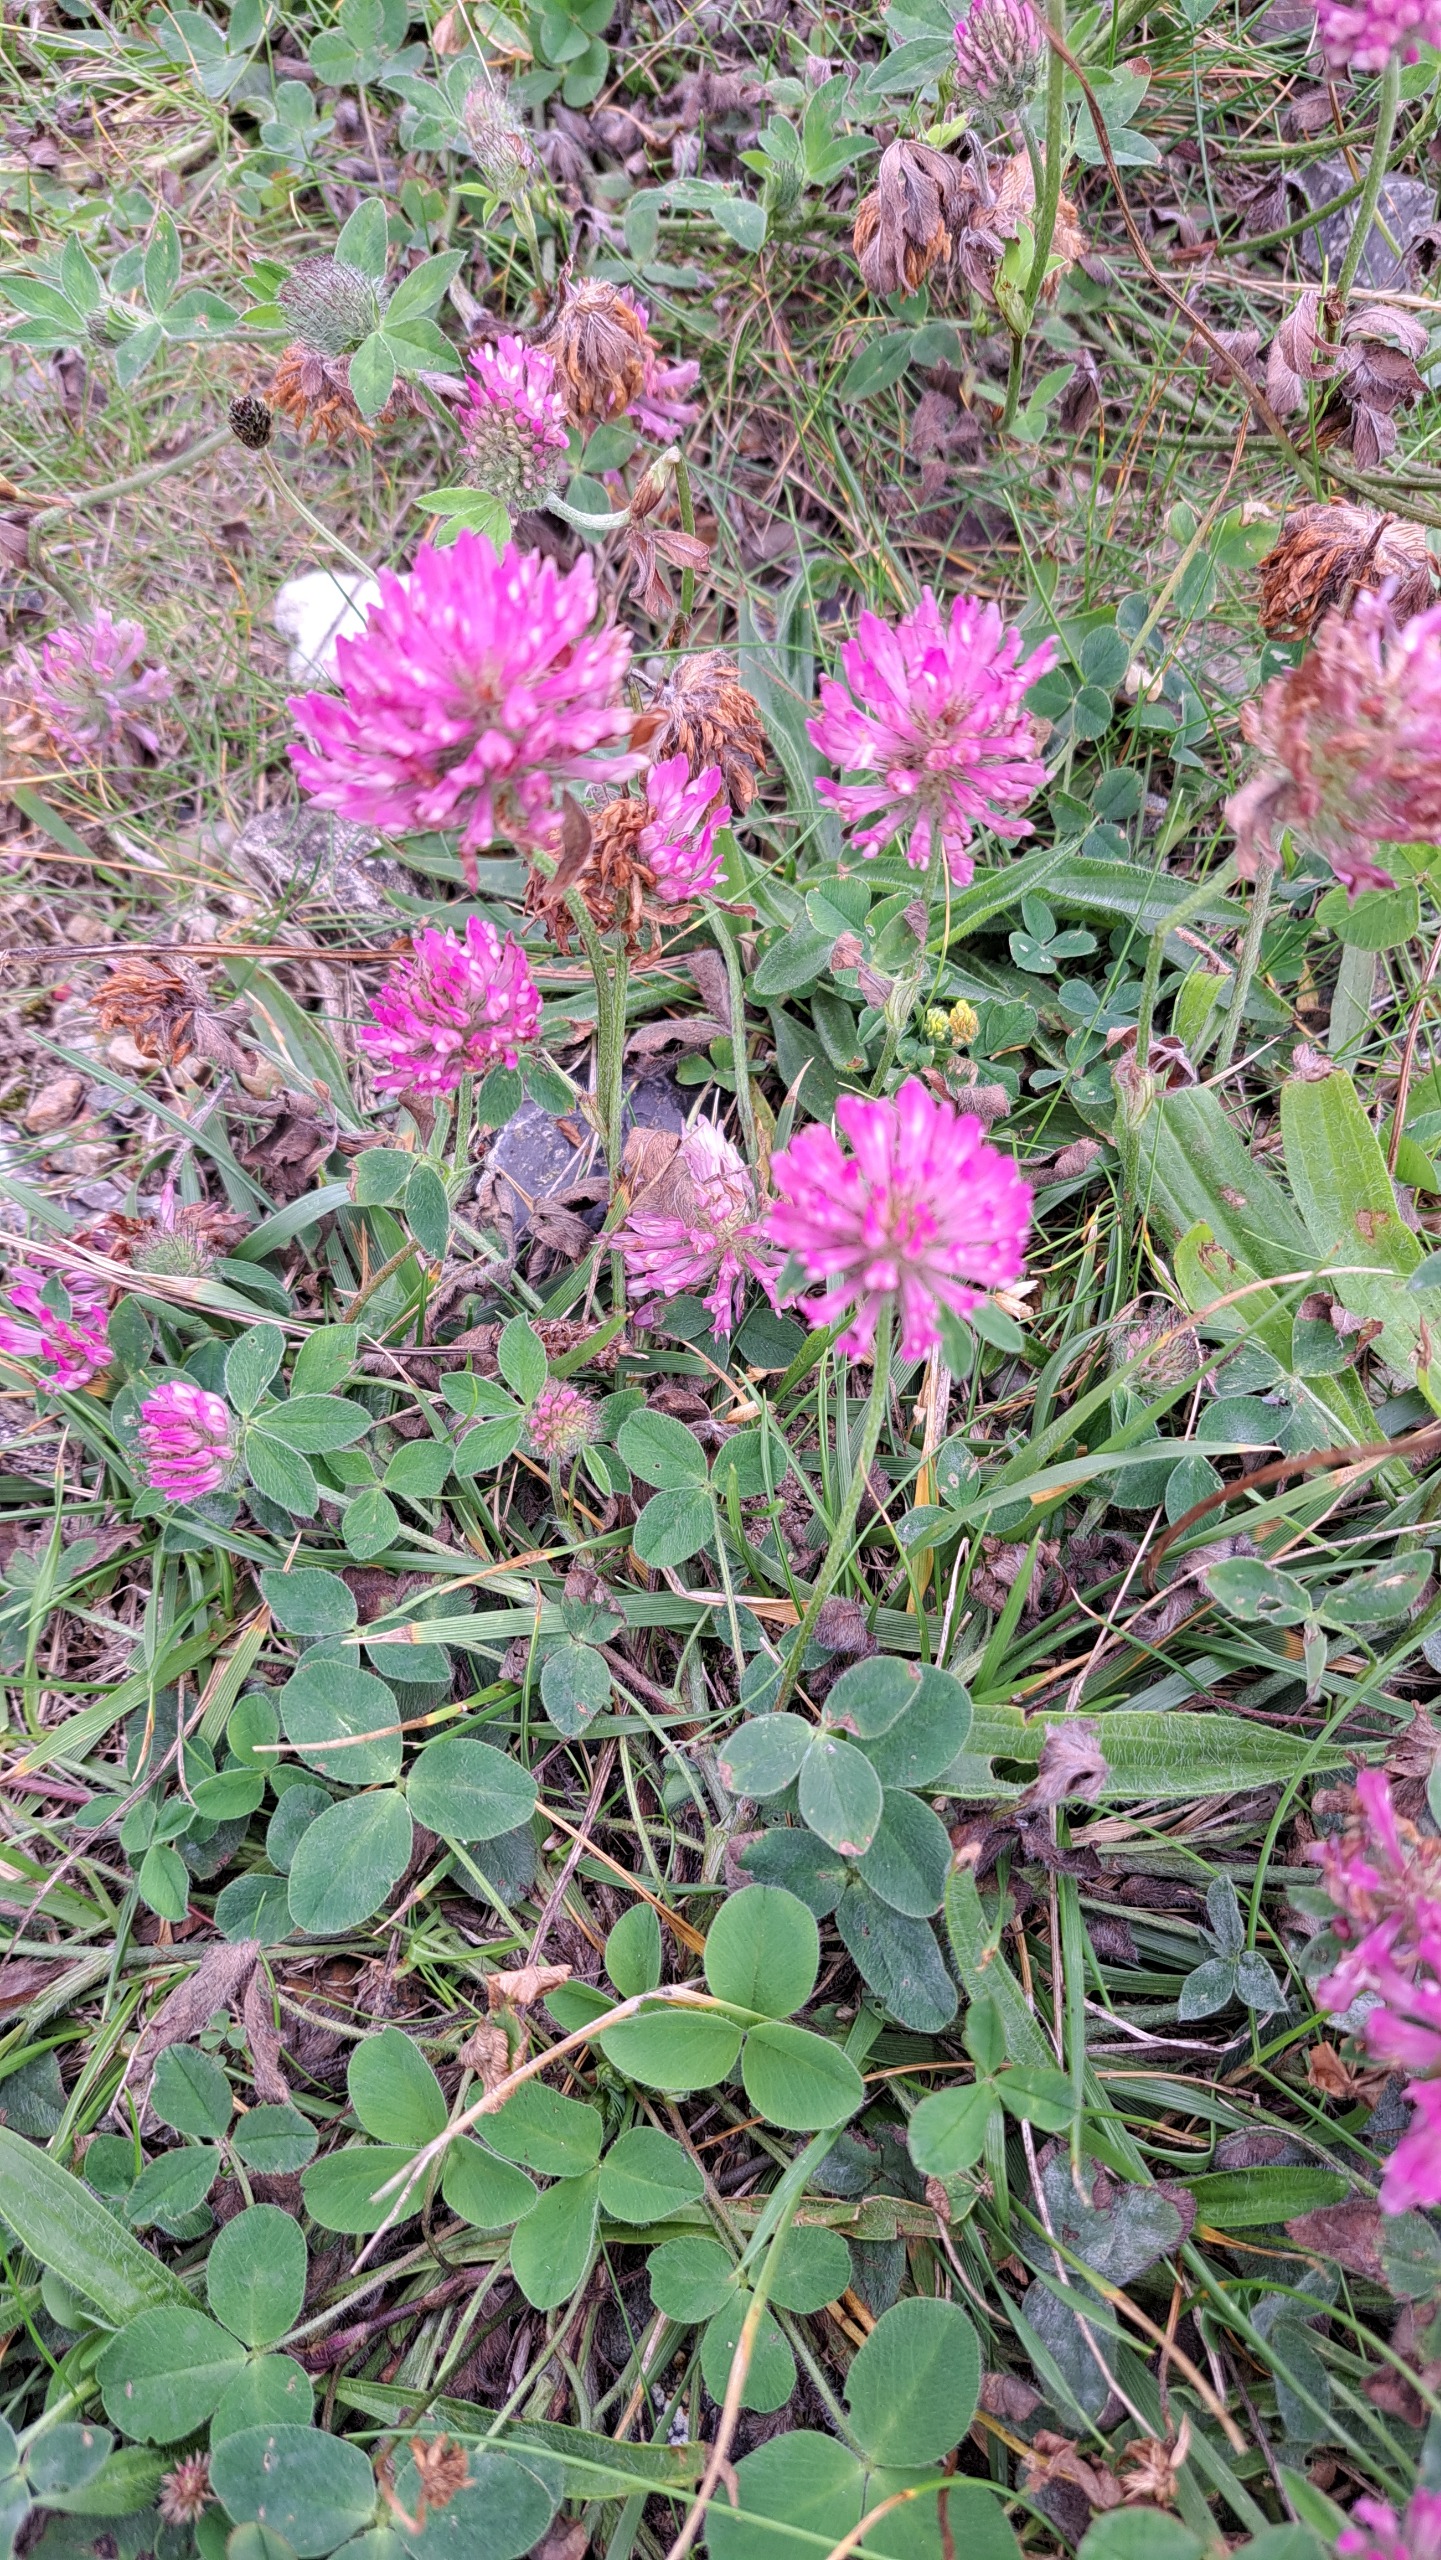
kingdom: Plantae
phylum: Tracheophyta
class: Magnoliopsida
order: Fabales
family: Fabaceae
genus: Trifolium
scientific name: Trifolium pratense
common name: Rød-kløver
